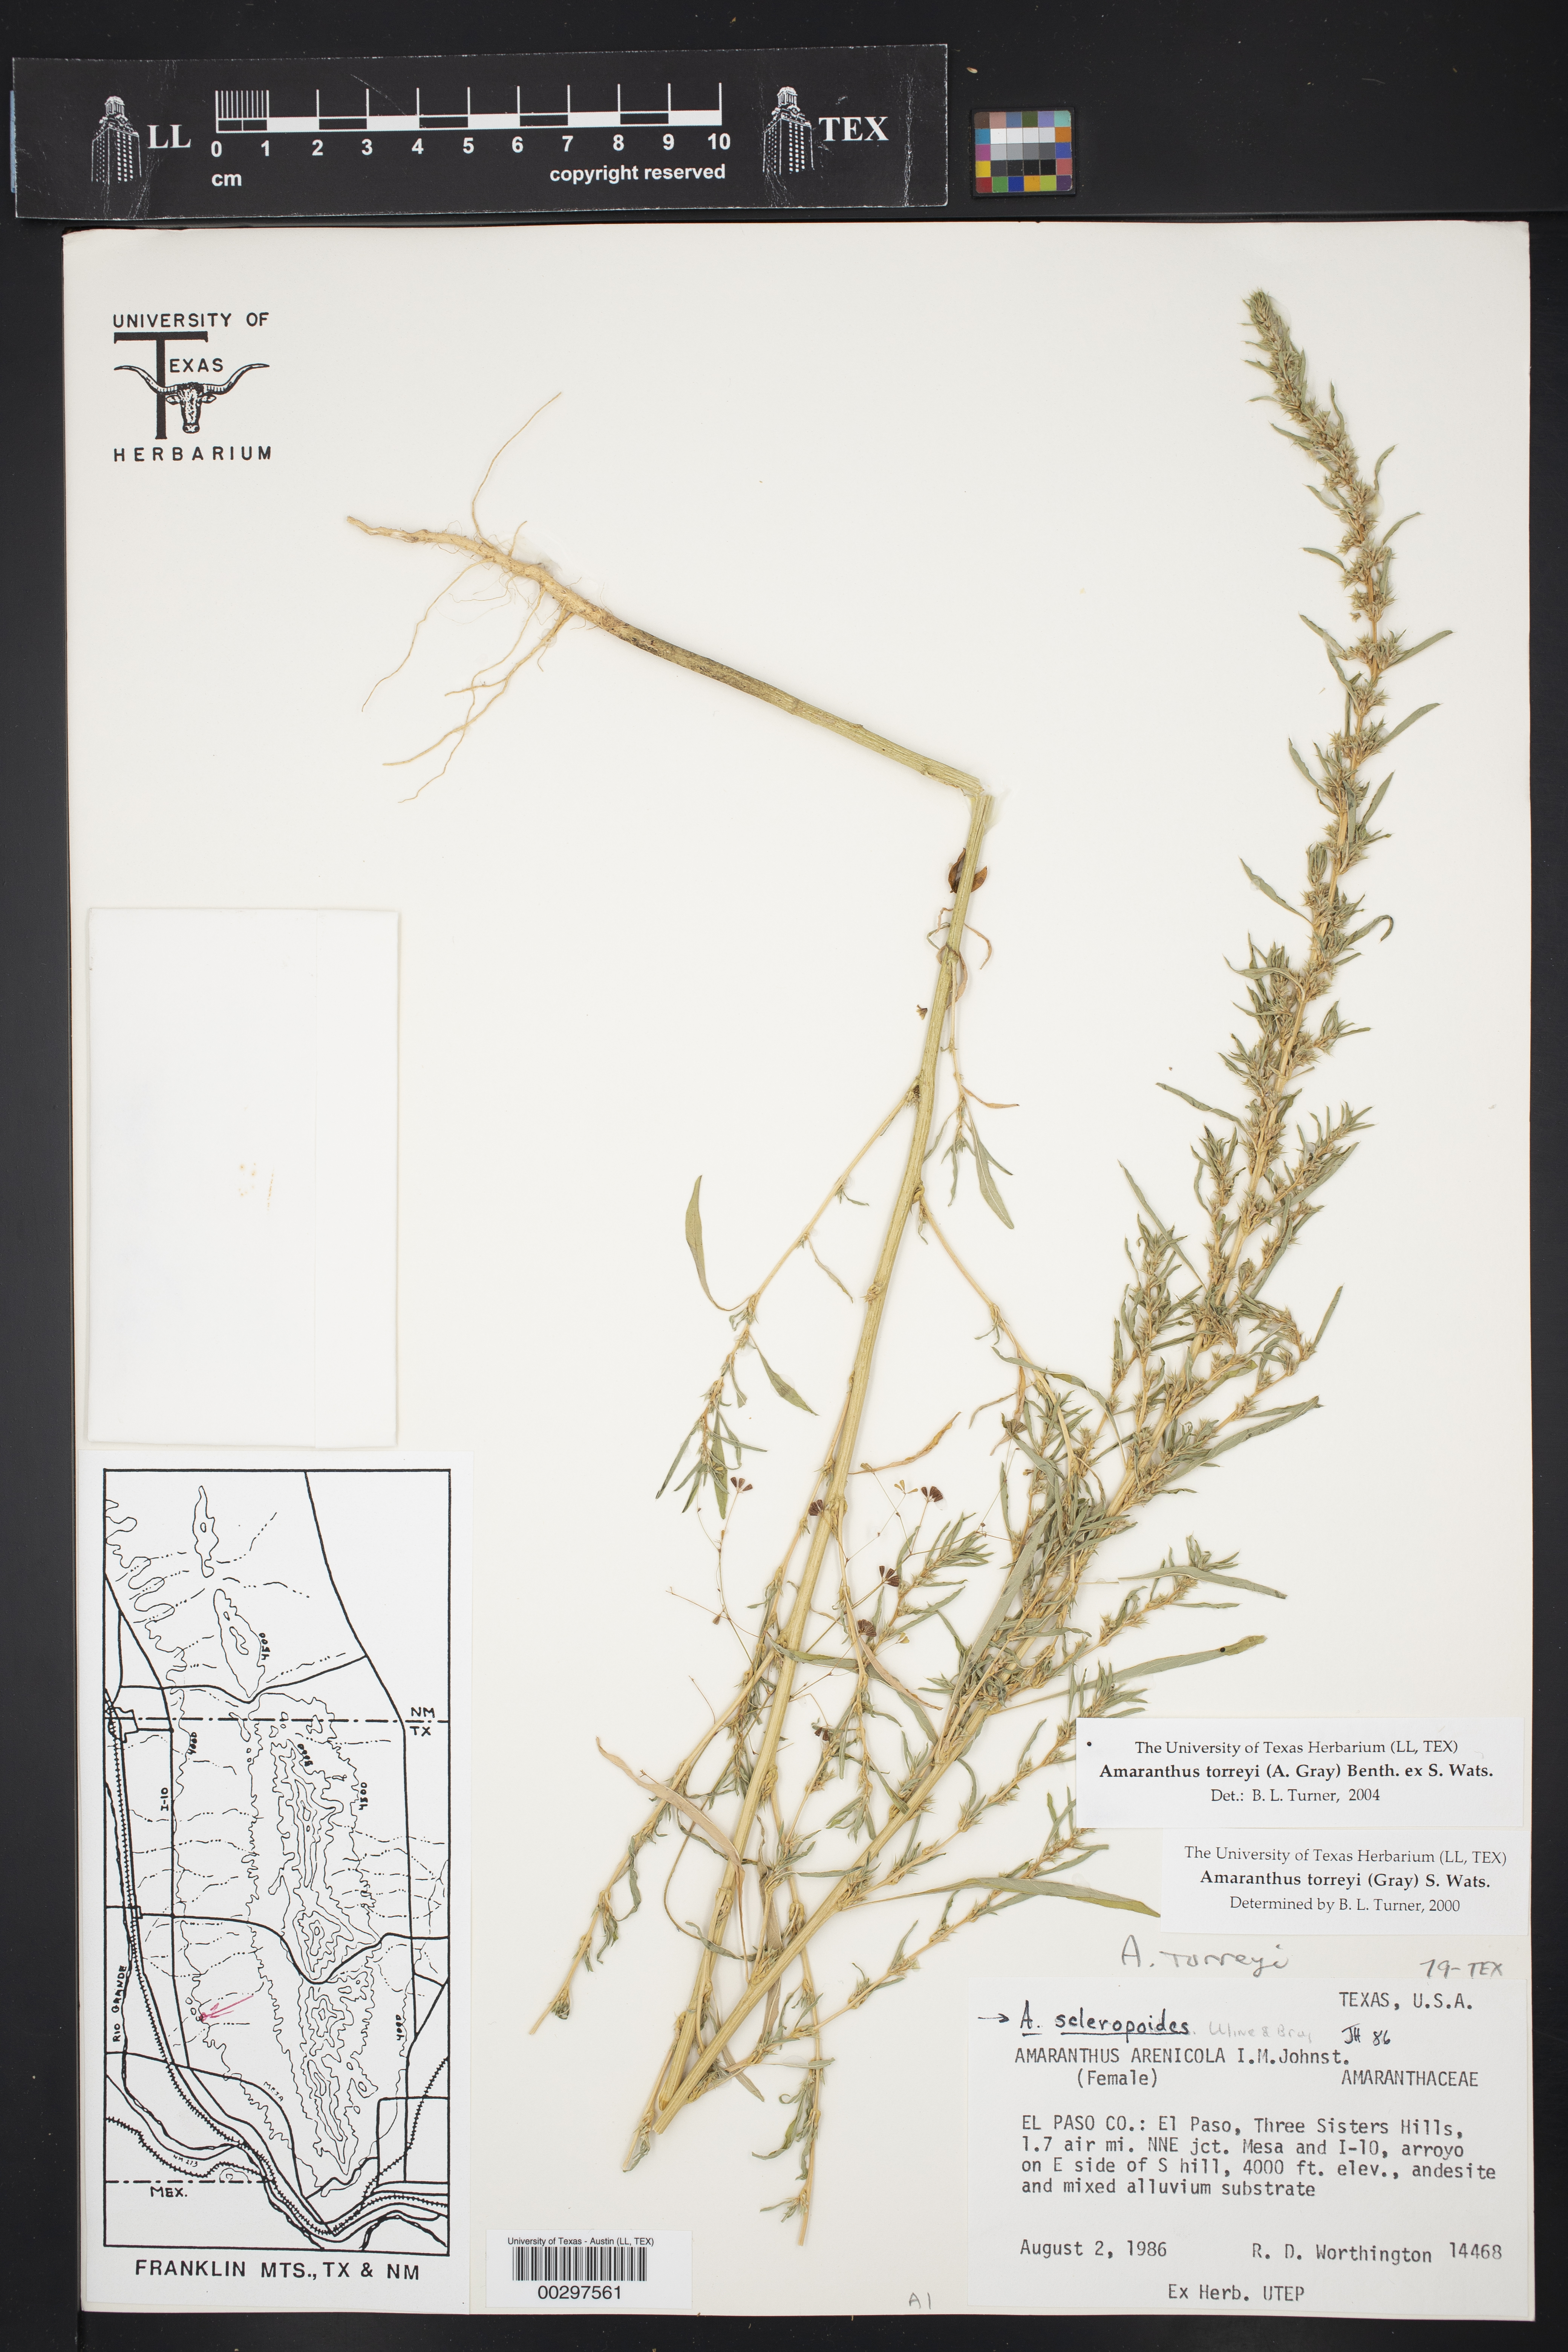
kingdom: Plantae
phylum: Tracheophyta
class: Magnoliopsida
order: Caryophyllales
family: Amaranthaceae
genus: Amaranthus
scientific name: Amaranthus torreyi
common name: Bigelow's amaranth
